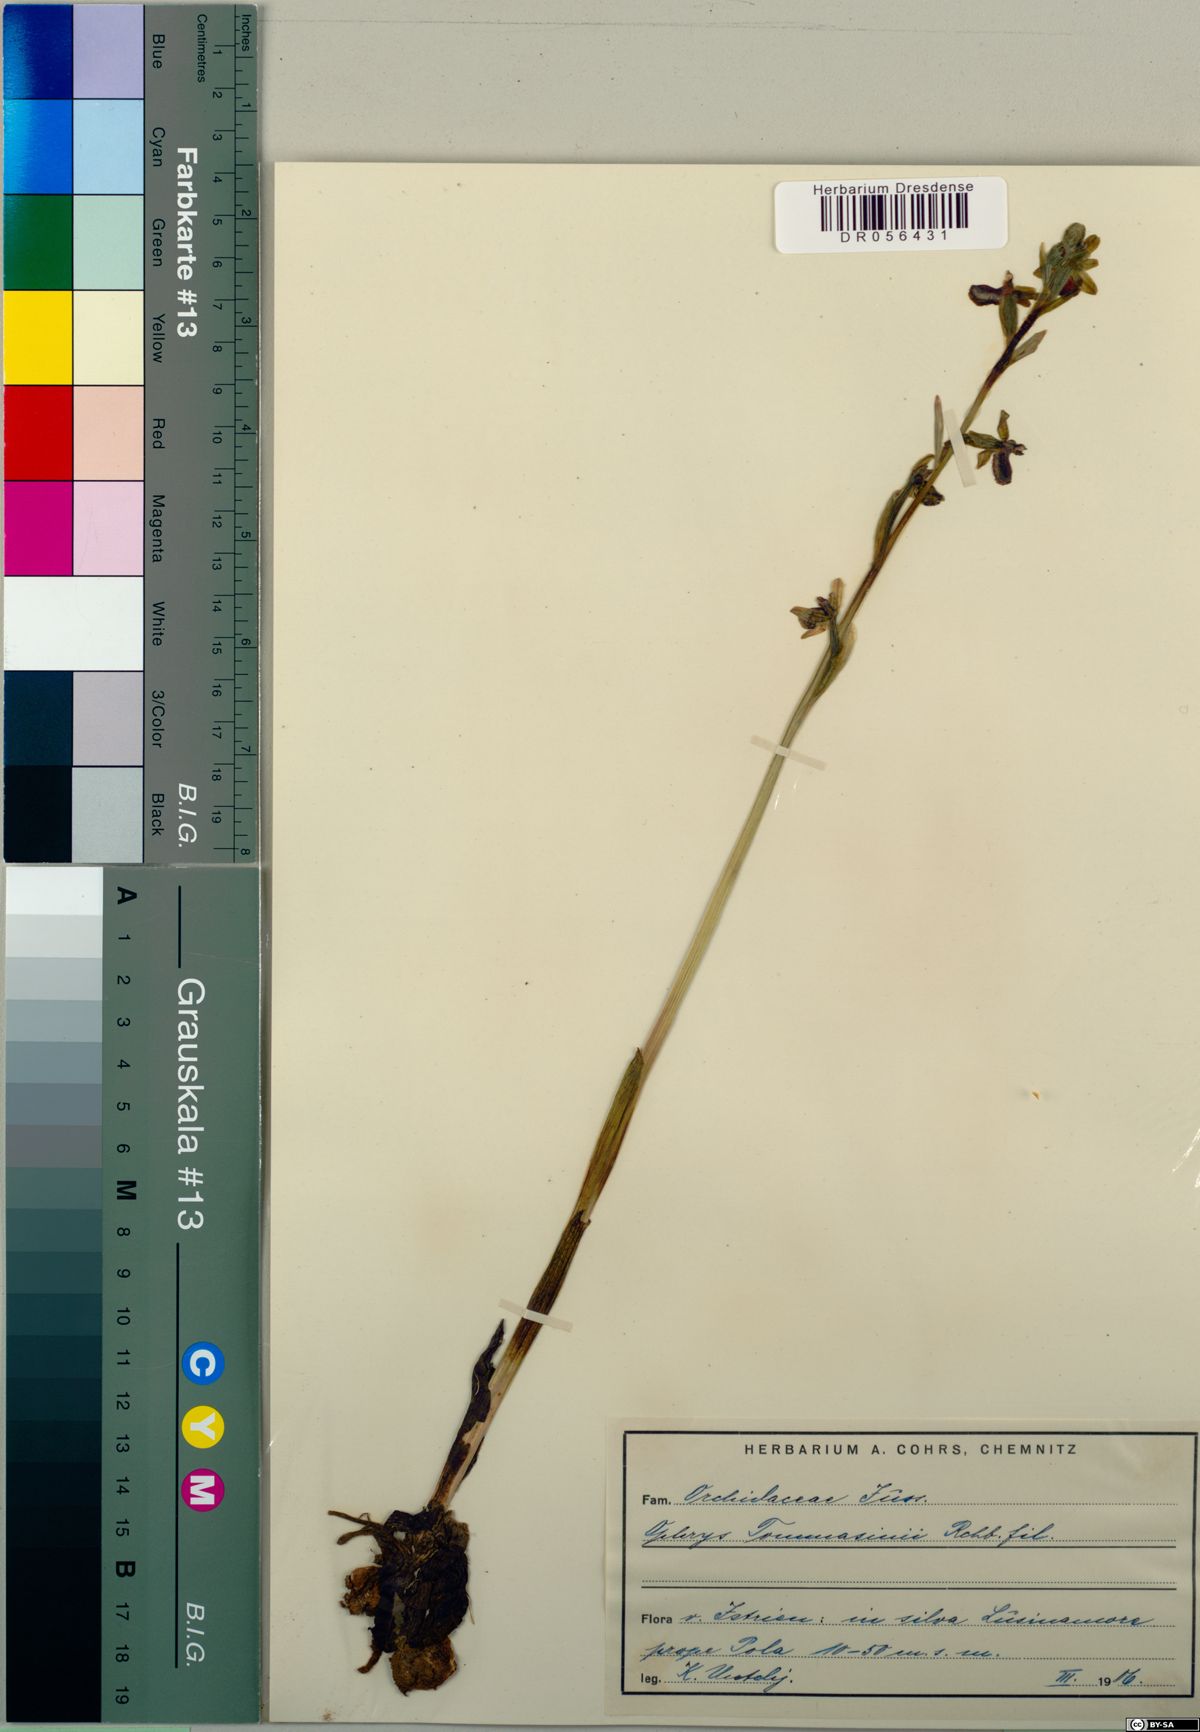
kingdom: Plantae
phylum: Tracheophyta
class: Liliopsida
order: Asparagales
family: Orchidaceae
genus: Ophrys
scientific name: Ophrys sphegodes
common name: Early spider-orchid
